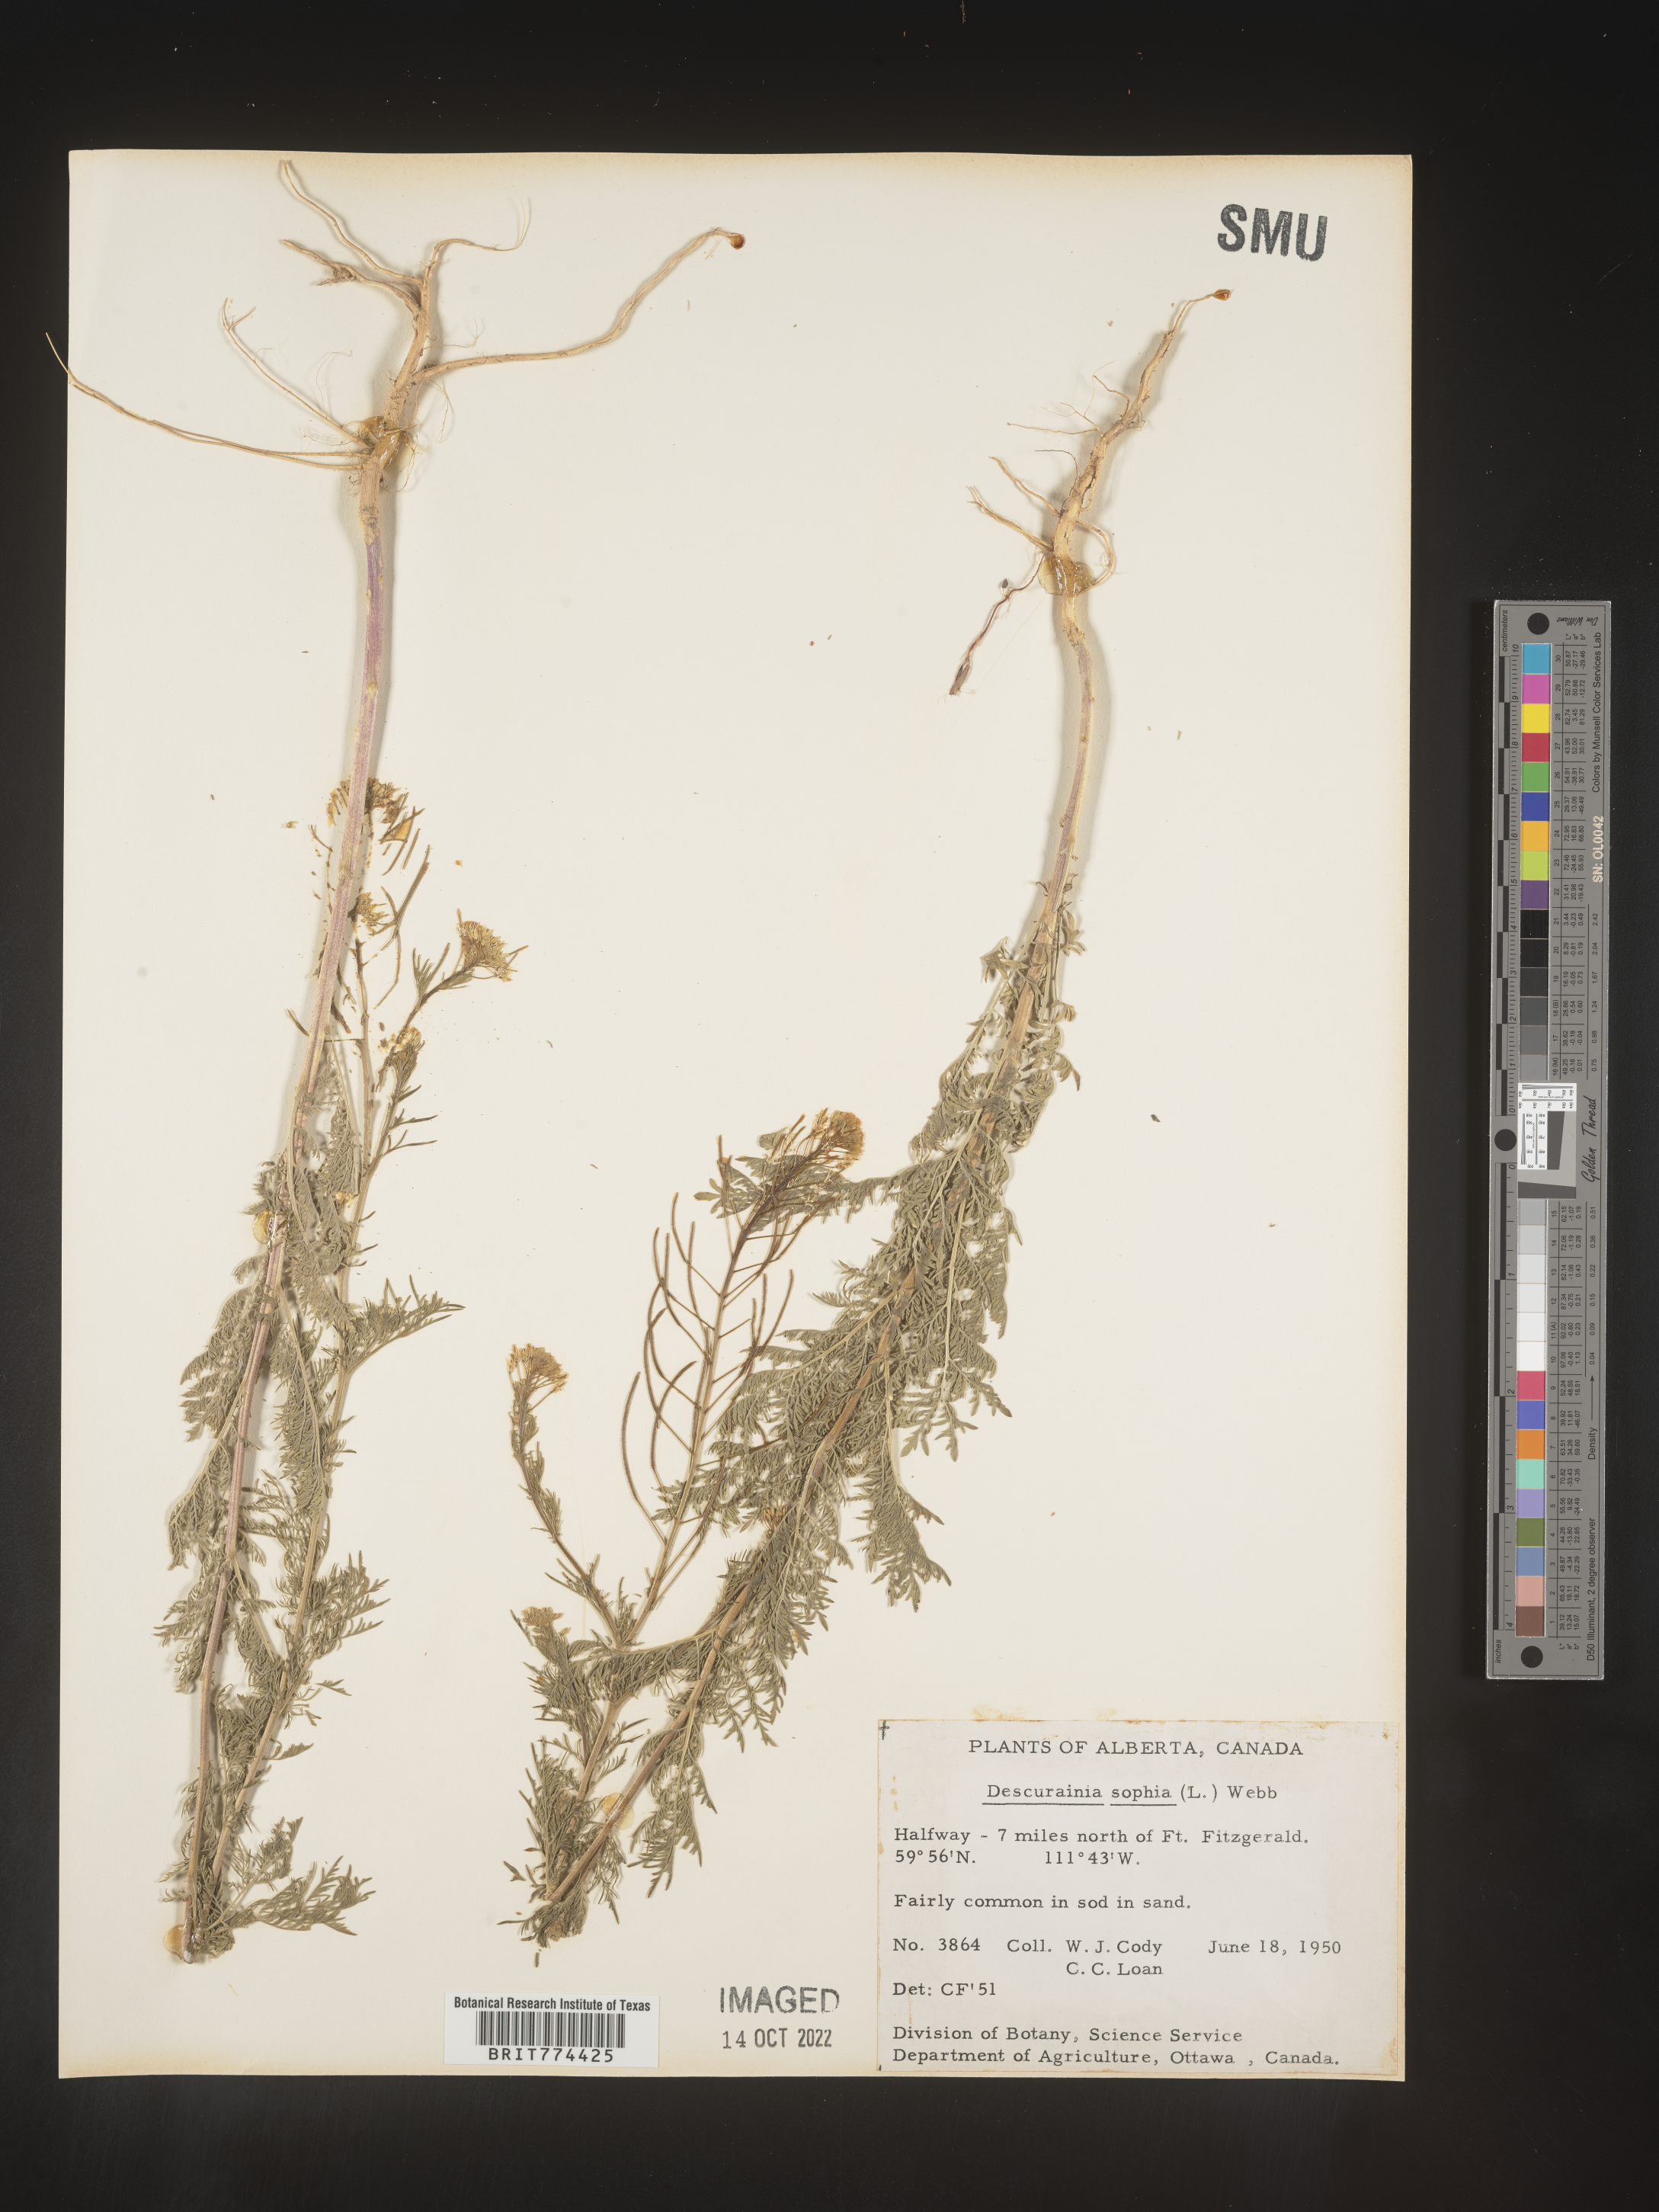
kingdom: Plantae
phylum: Tracheophyta
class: Magnoliopsida
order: Brassicales
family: Brassicaceae
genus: Descurainia
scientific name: Descurainia sophia
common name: Flixweed
